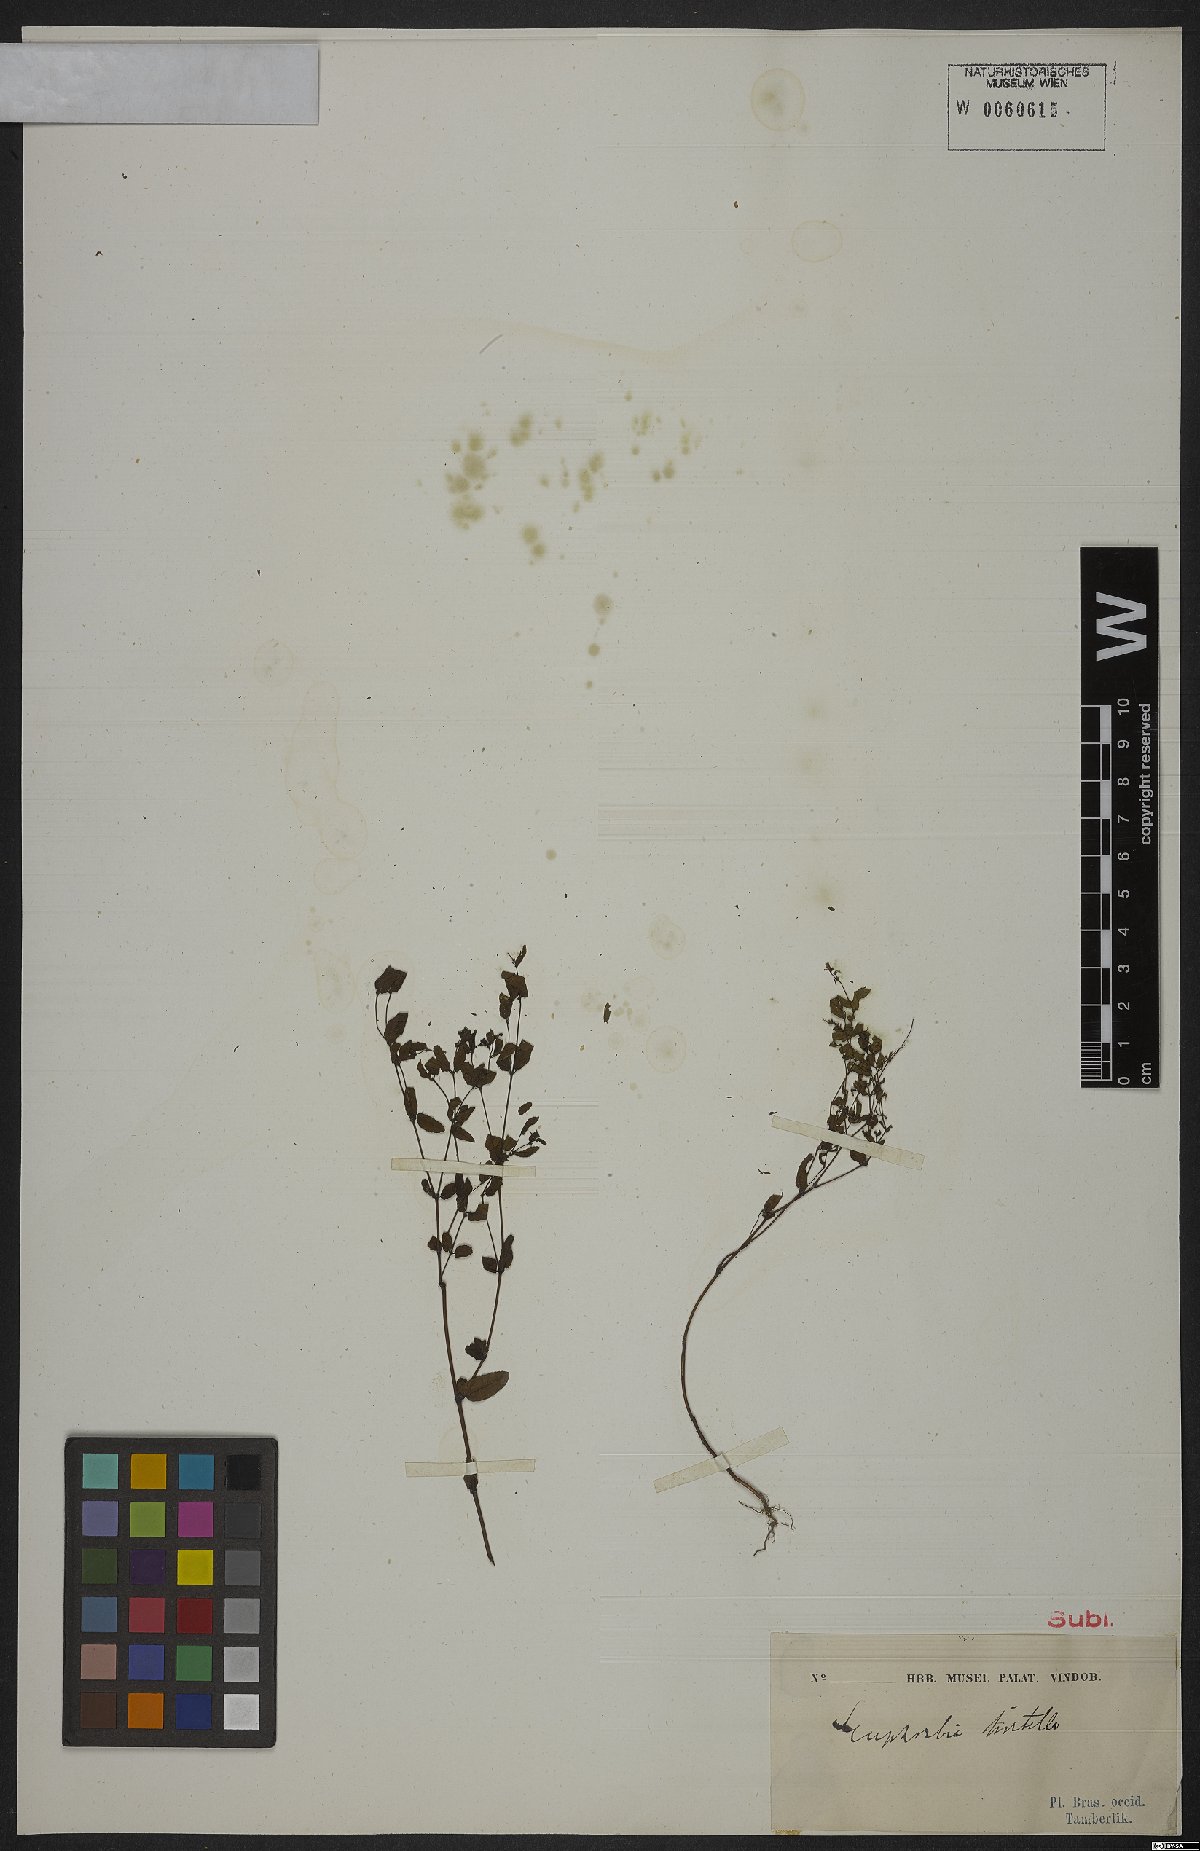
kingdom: Plantae
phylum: Tracheophyta
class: Magnoliopsida
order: Malpighiales
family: Euphorbiaceae
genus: Euphorbia
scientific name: Euphorbia hirtella
